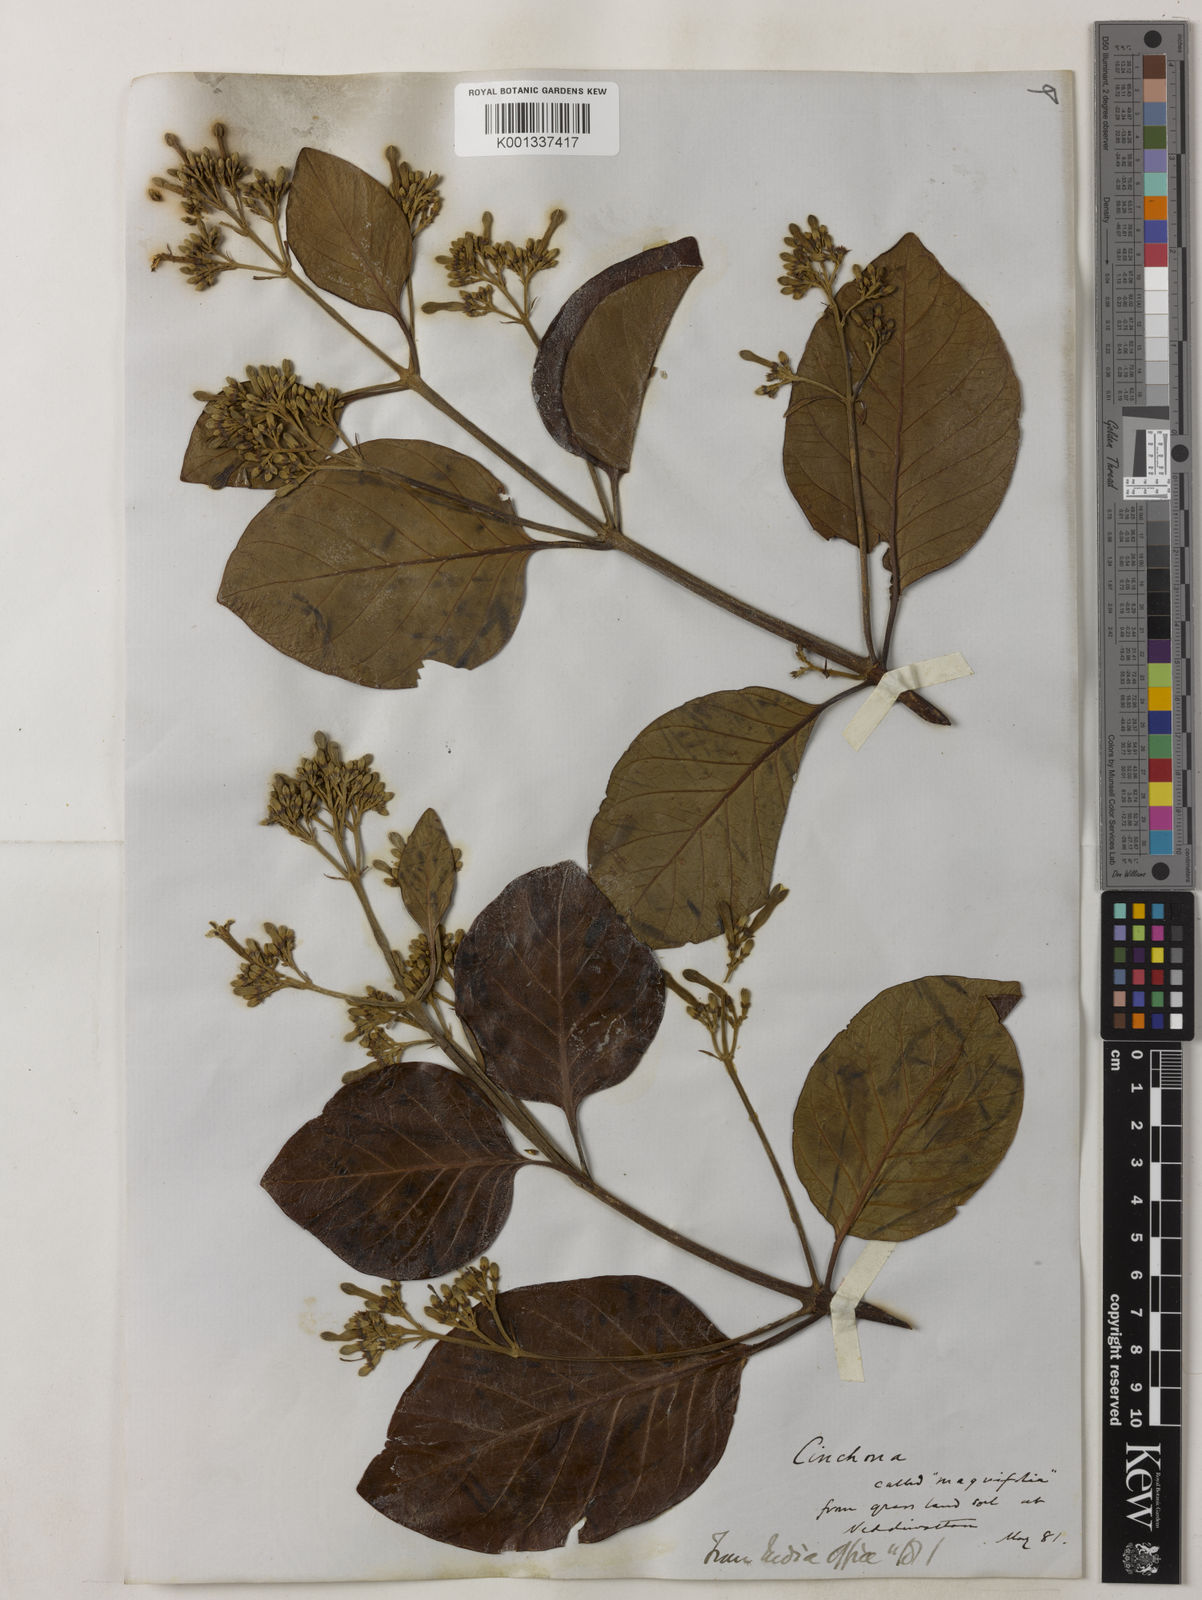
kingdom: Plantae
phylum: Tracheophyta
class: Magnoliopsida
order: Gentianales
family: Rubiaceae
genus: Cinchona
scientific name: Cinchona pubescens
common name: Quinine
